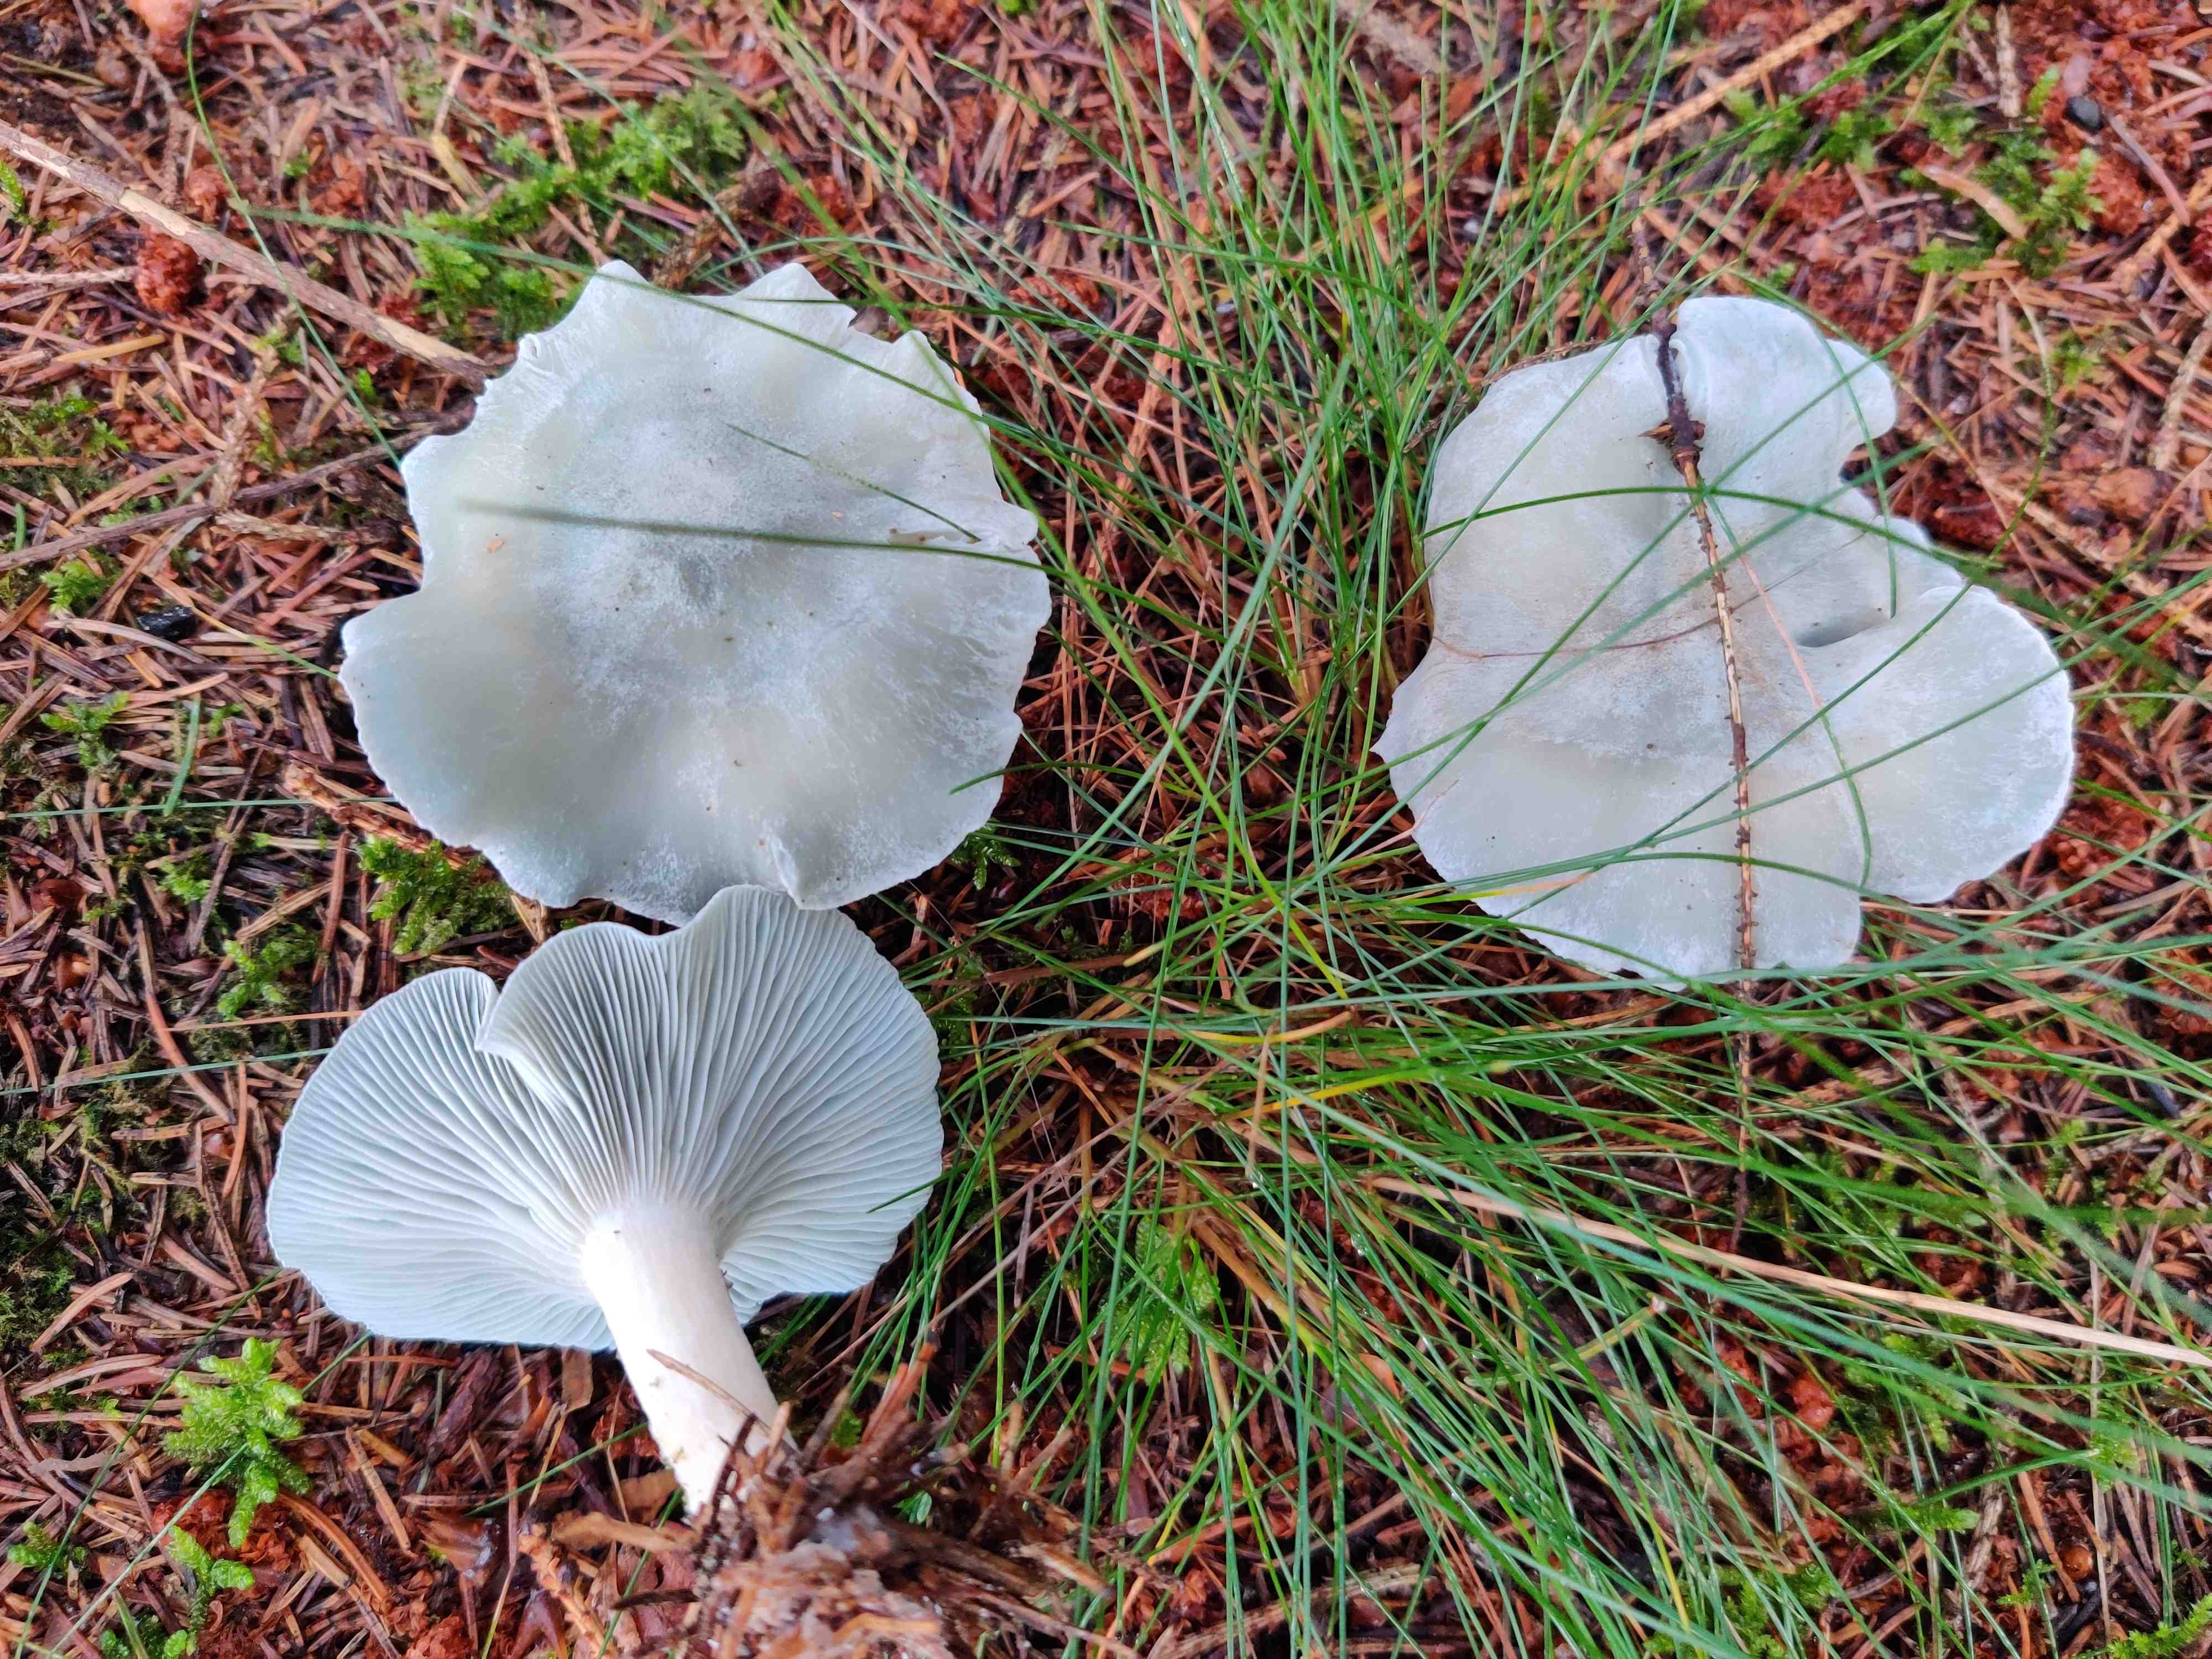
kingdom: Fungi
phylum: Basidiomycota
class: Agaricomycetes
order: Agaricales
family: Tricholomataceae
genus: Clitocybe
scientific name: Clitocybe odora
